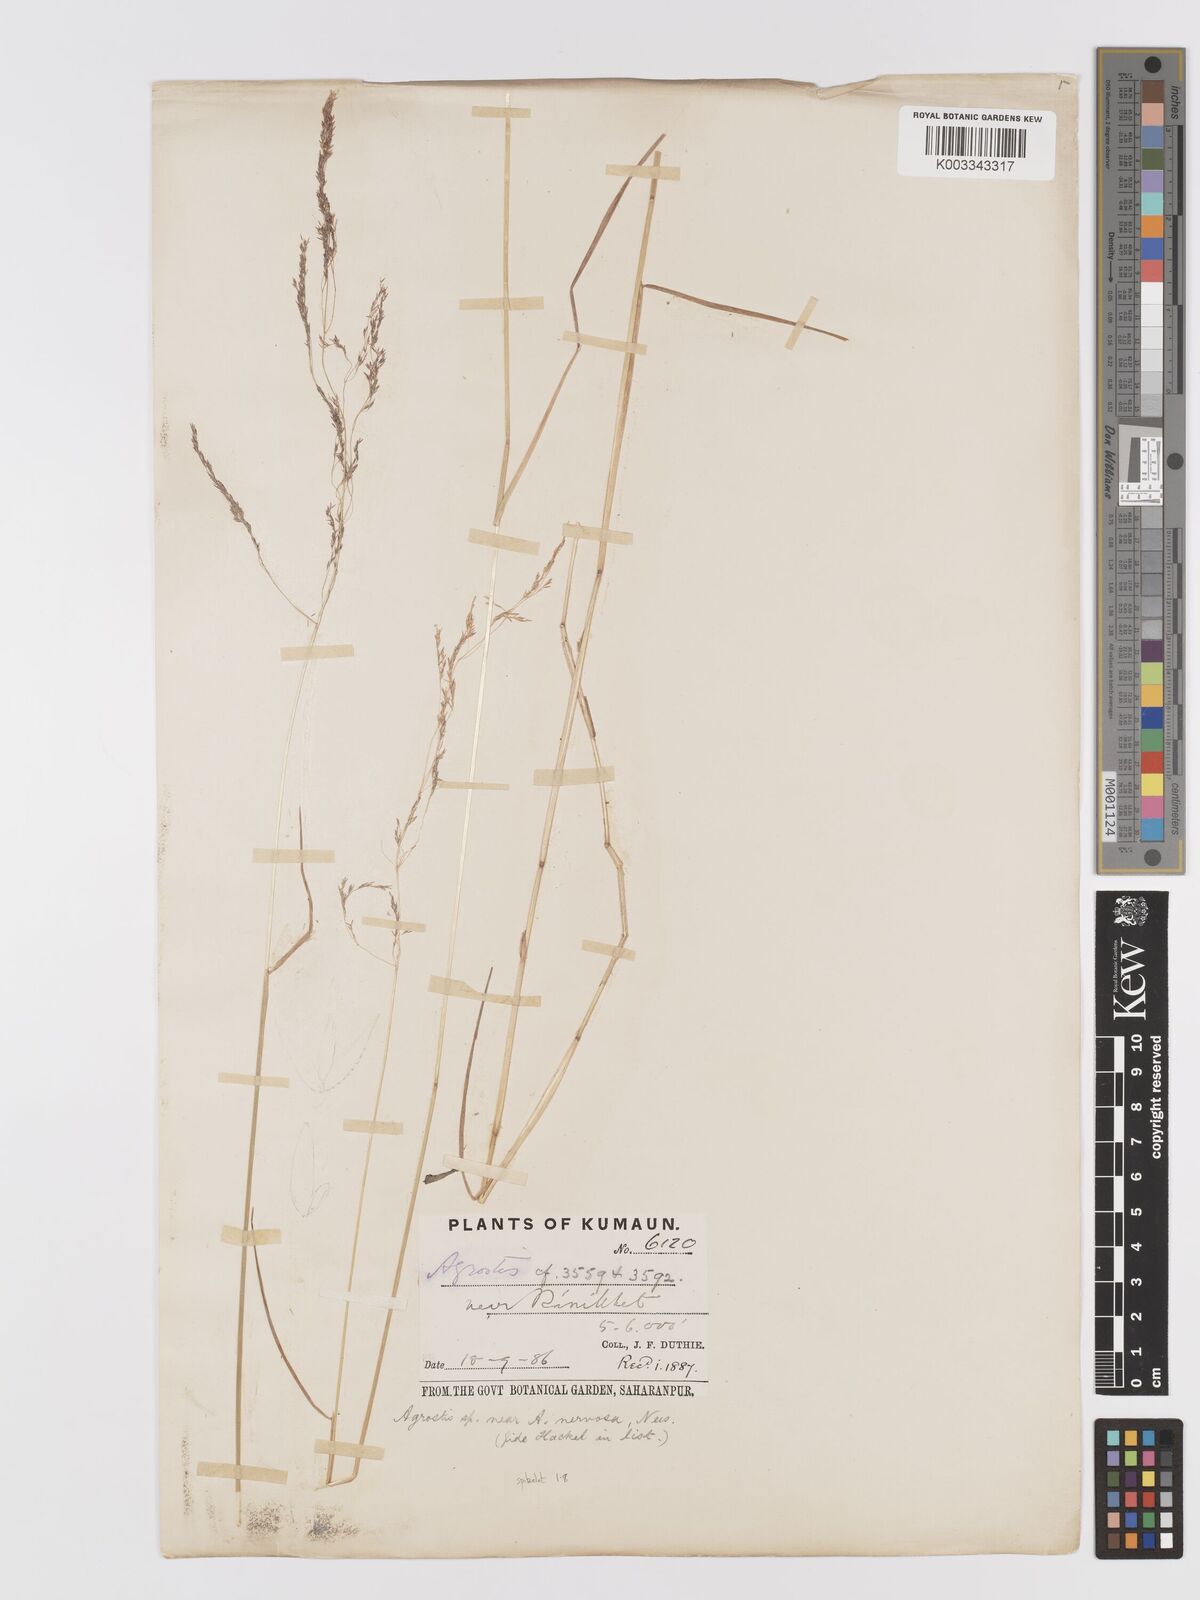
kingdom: Plantae
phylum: Tracheophyta
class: Liliopsida
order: Poales
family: Poaceae
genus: Agrostis
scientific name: Agrostis micrantha
